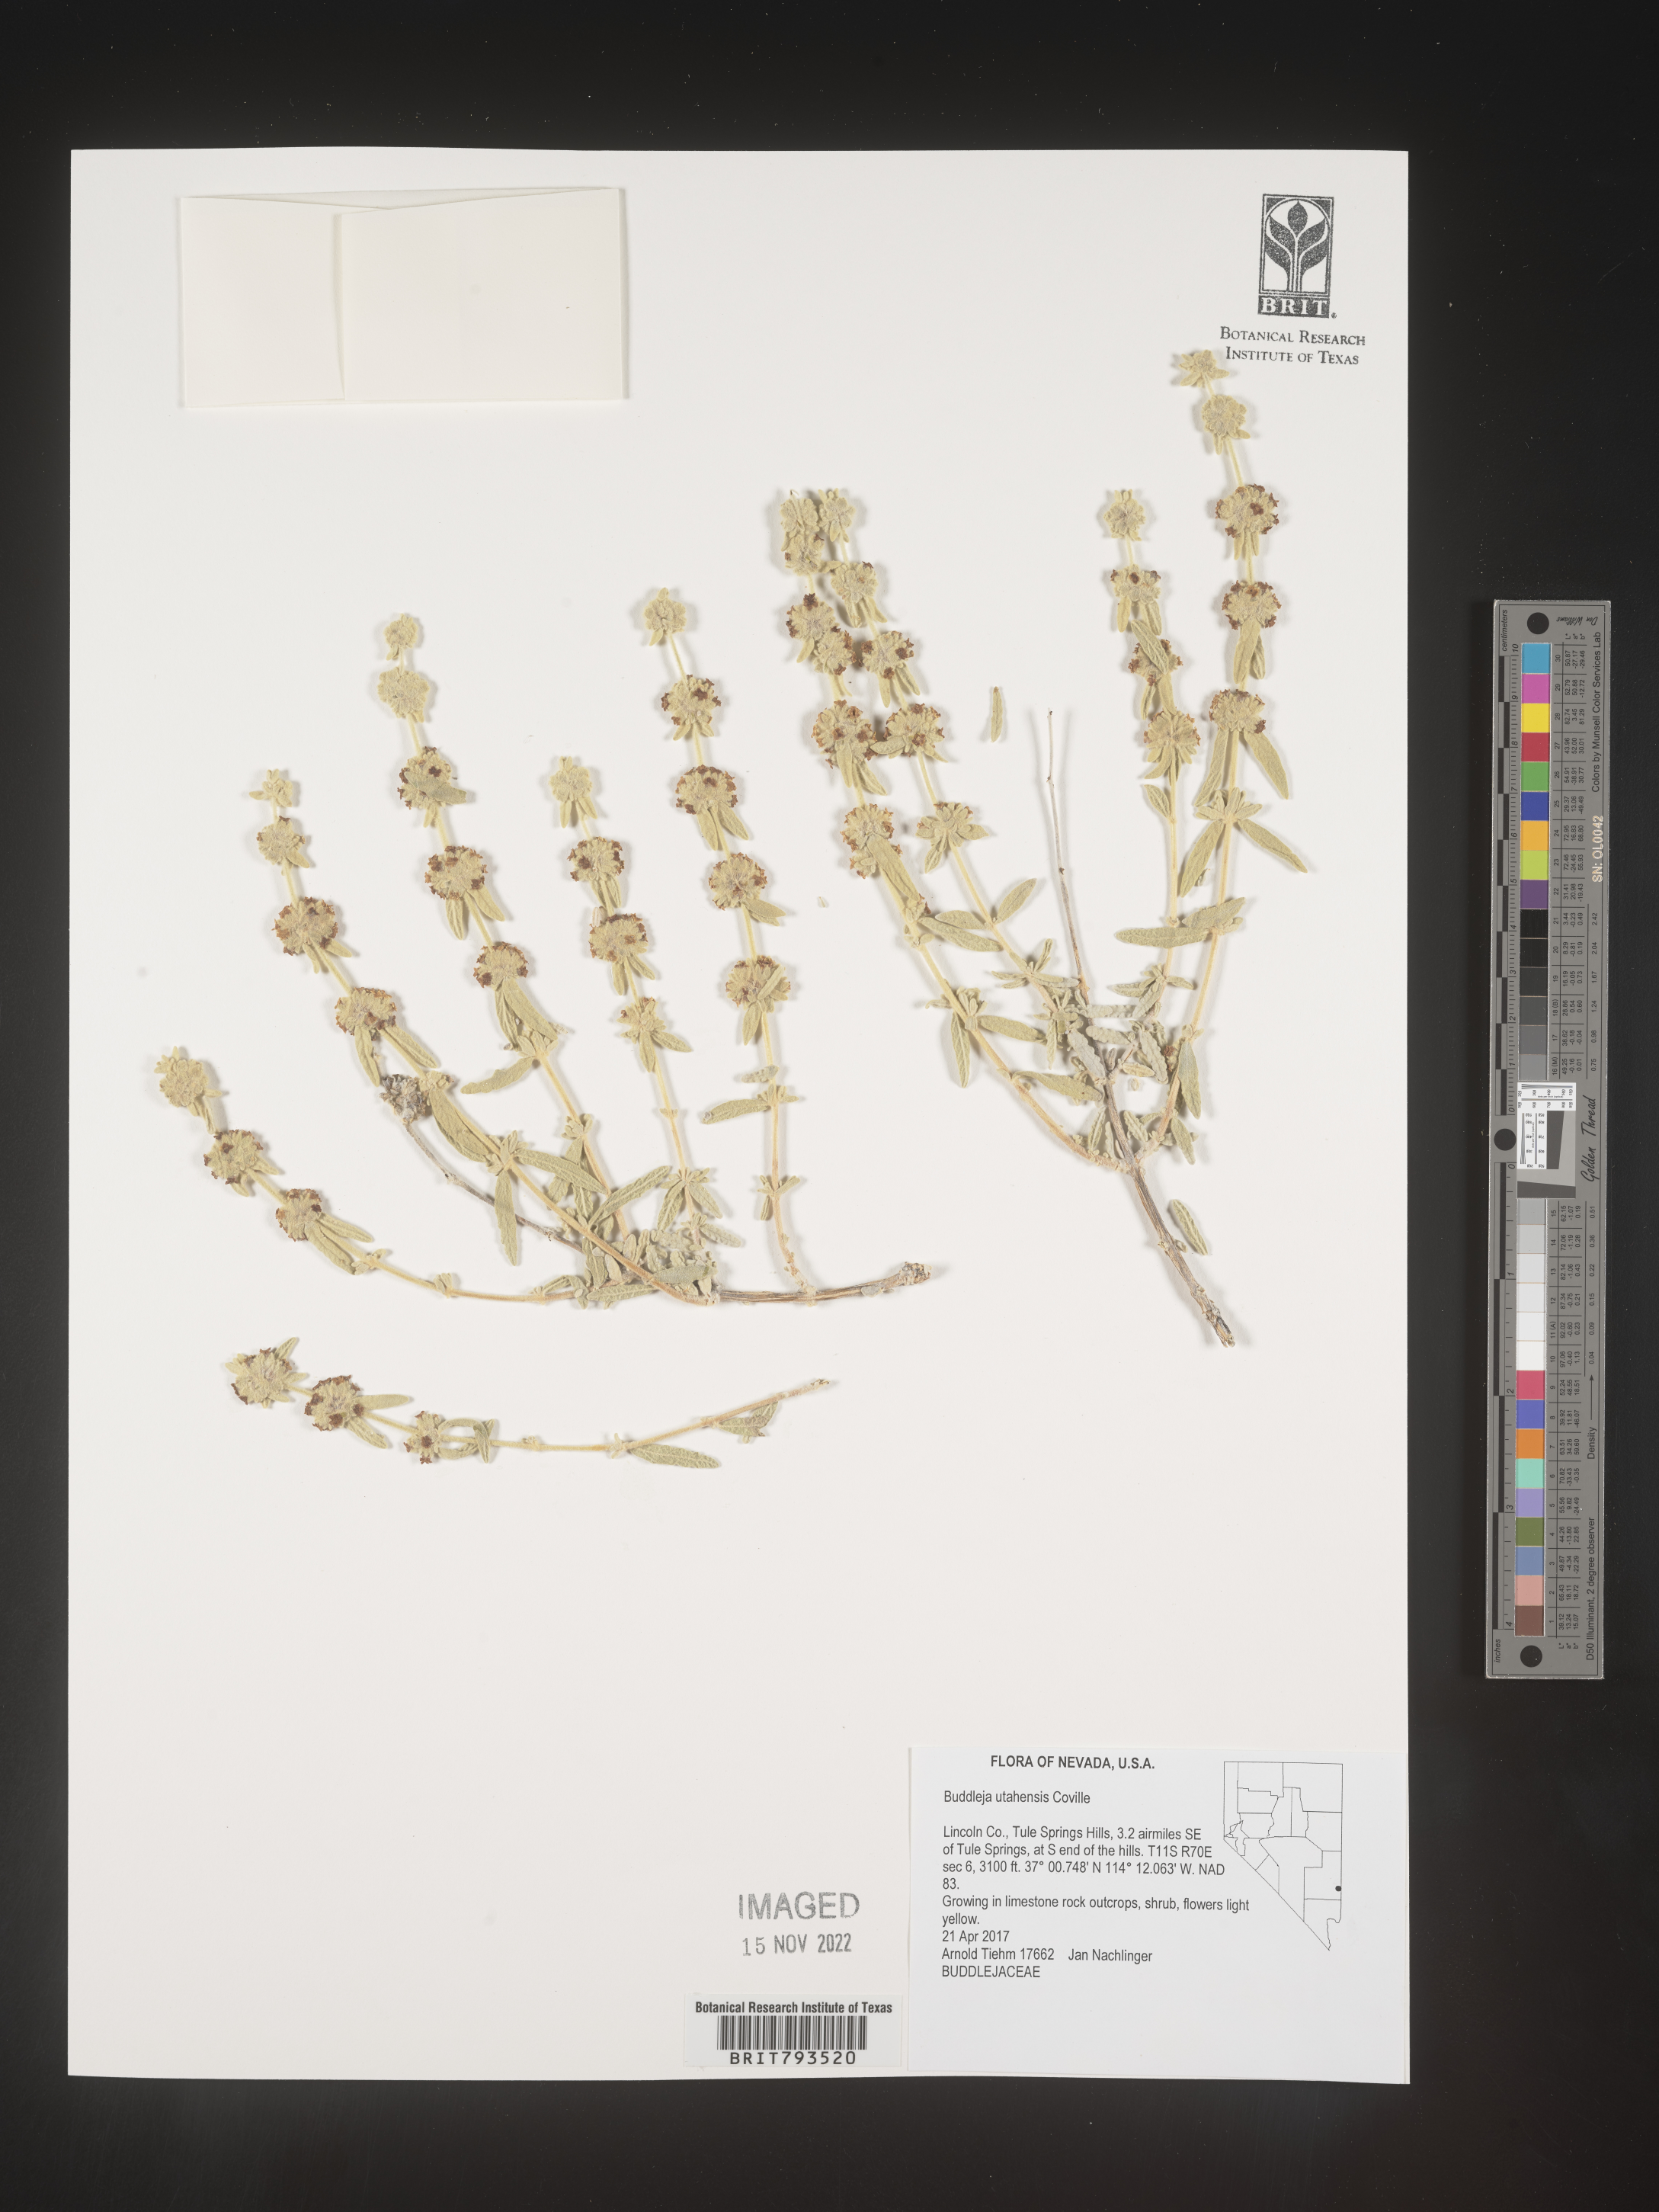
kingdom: Plantae
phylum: Tracheophyta
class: Magnoliopsida
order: Lamiales
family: Scrophulariaceae
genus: Buddleja
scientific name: Buddleja utahensis
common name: Utah butterfly-bush
